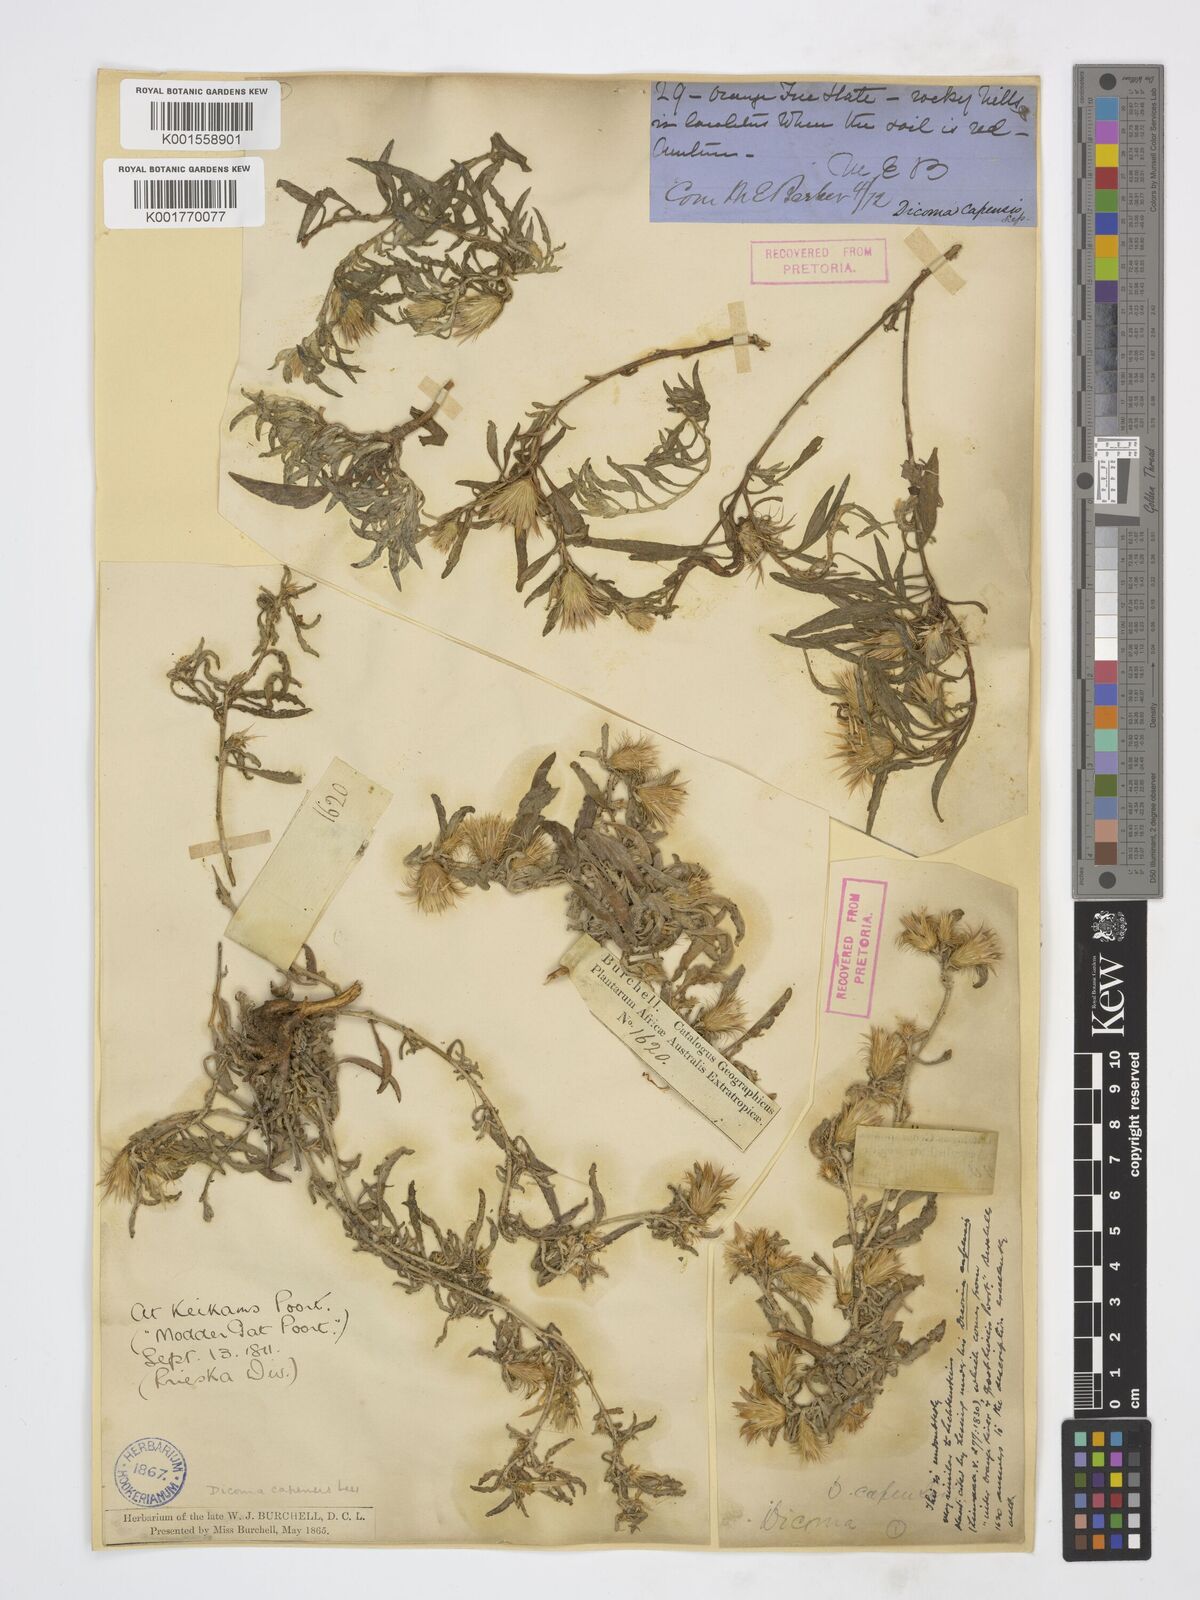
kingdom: Plantae
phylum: Tracheophyta
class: Magnoliopsida
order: Asterales
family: Asteraceae
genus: Dicoma
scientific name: Dicoma capensis
